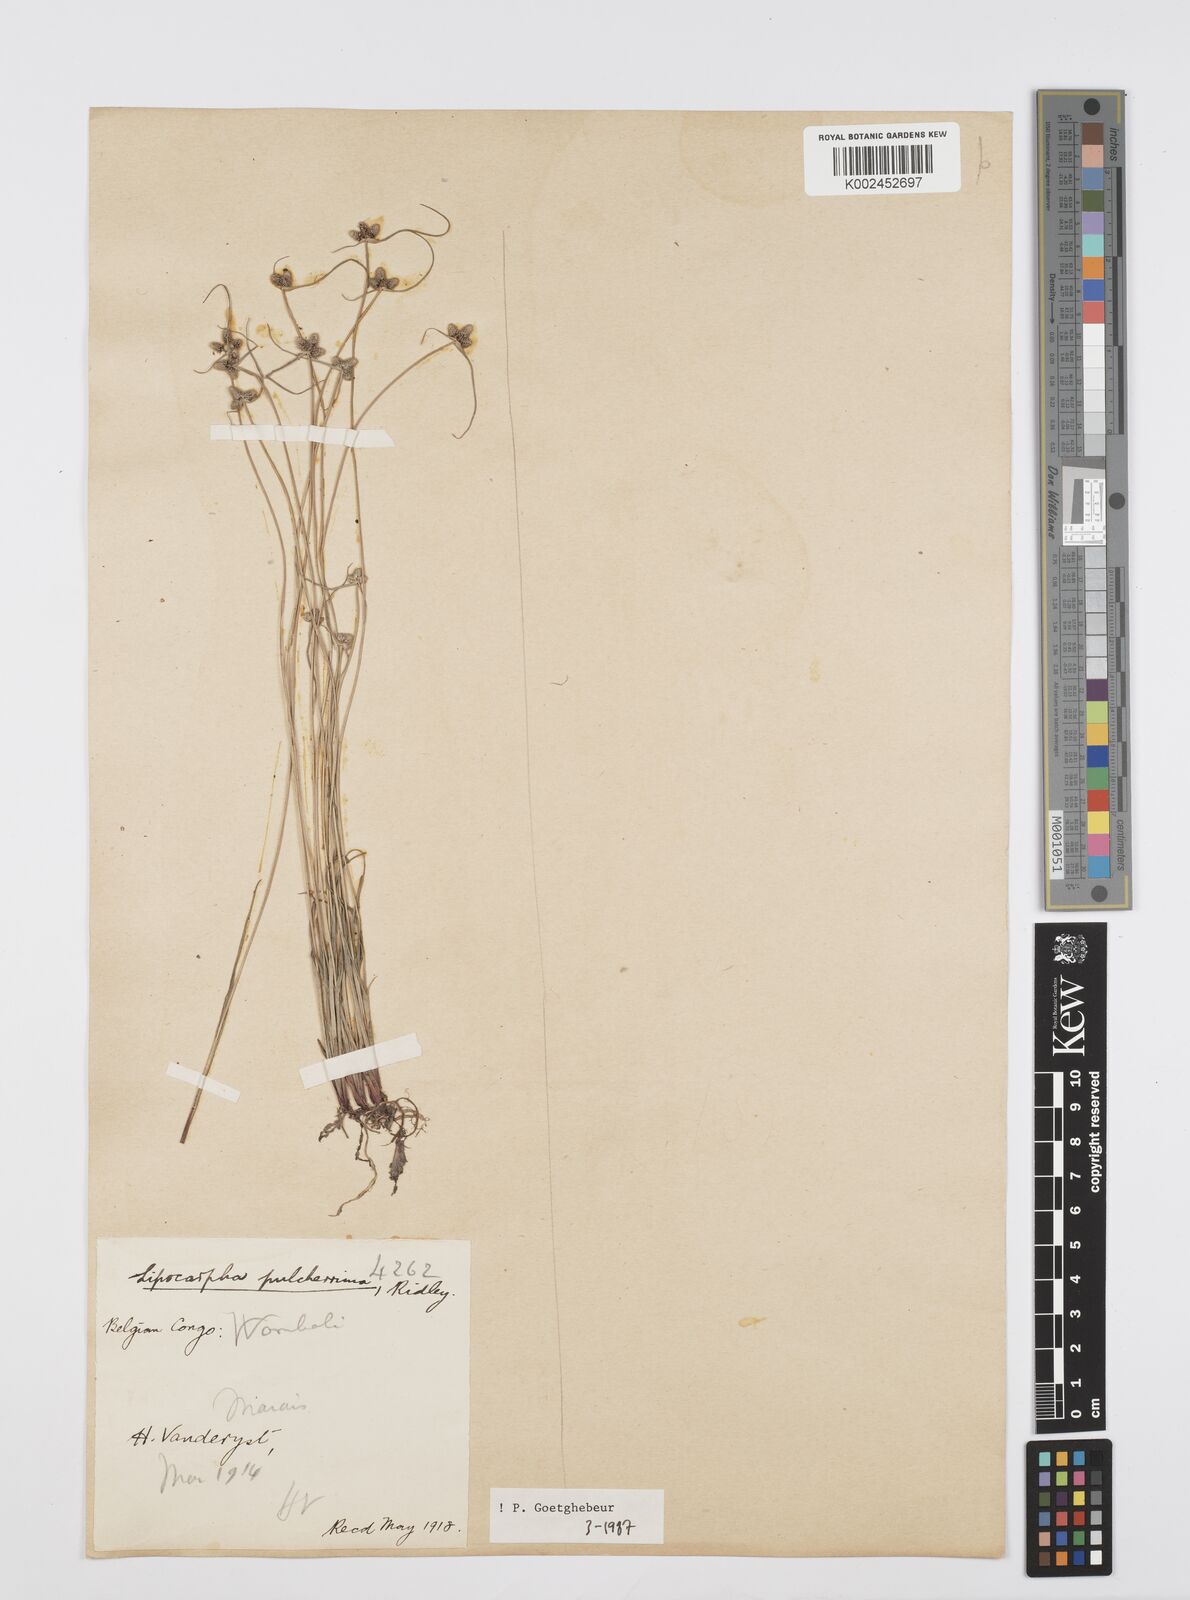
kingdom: Plantae
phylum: Tracheophyta
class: Liliopsida
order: Poales
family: Cyperaceae
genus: Cyperus
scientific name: Cyperus persquarrosus
